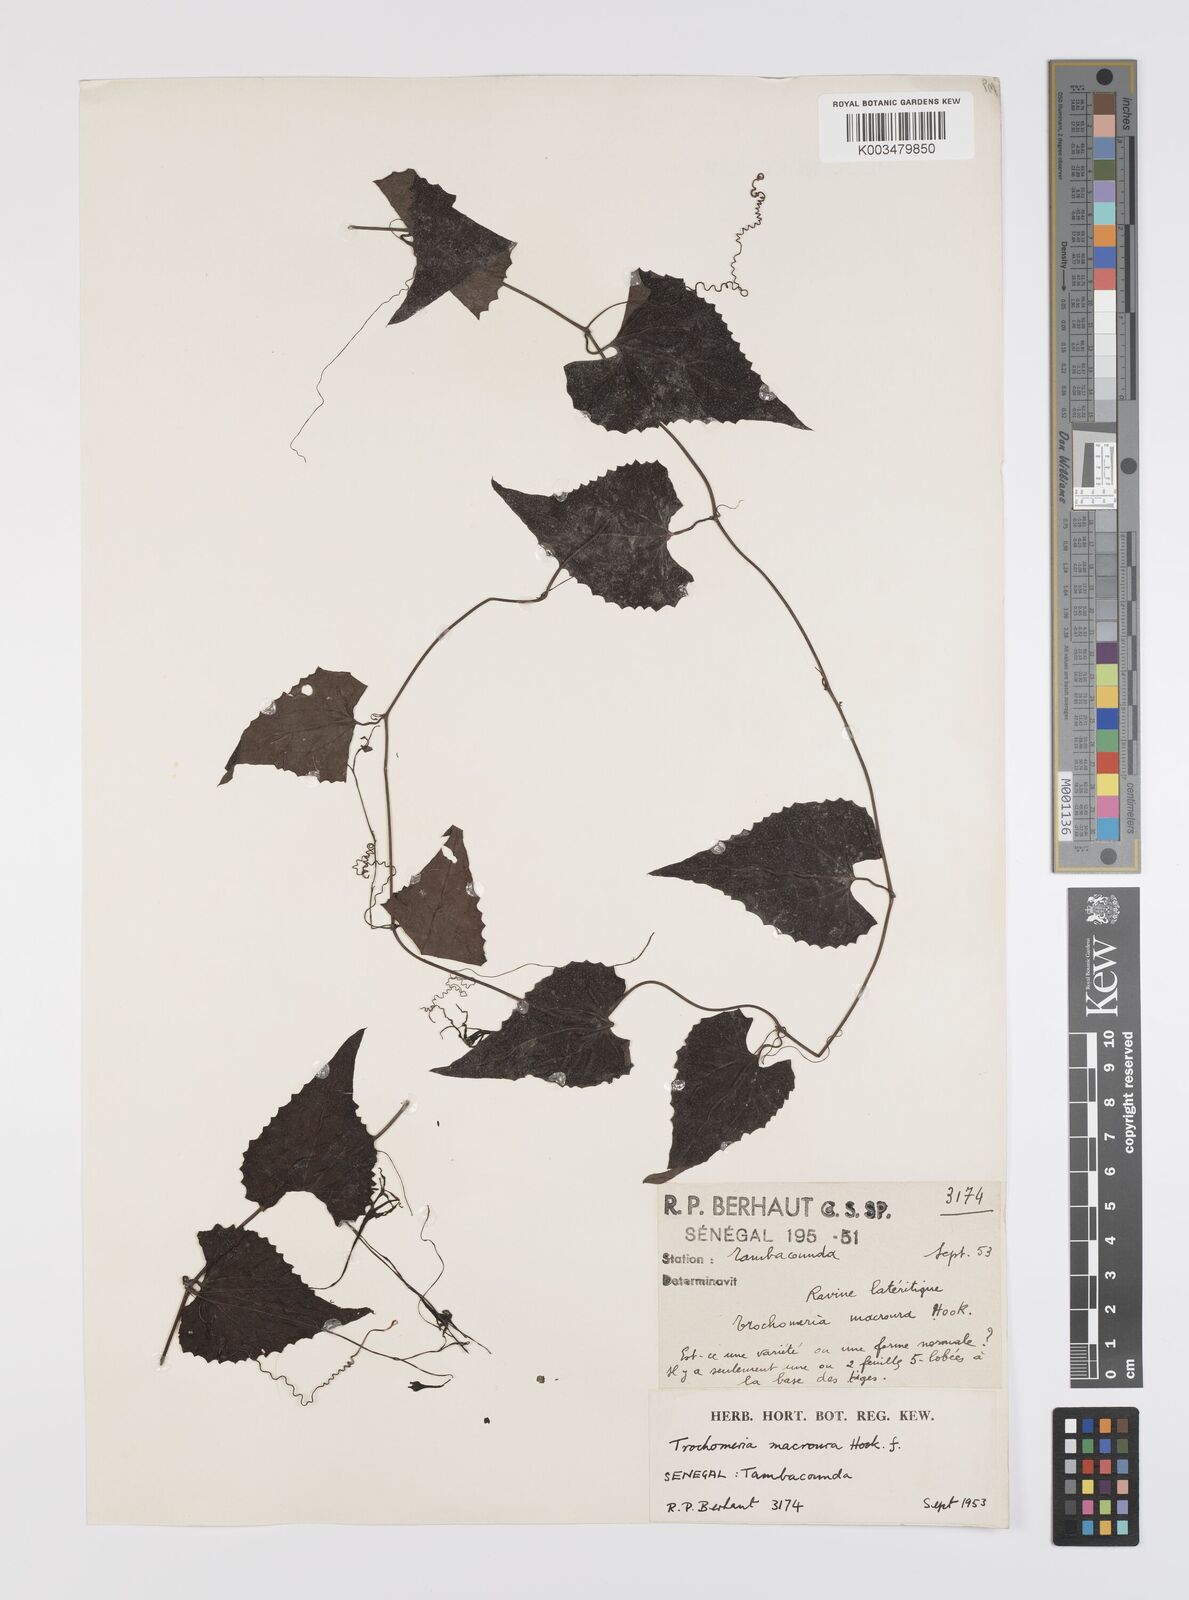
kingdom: Plantae
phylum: Tracheophyta
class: Magnoliopsida
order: Cucurbitales
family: Cucurbitaceae
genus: Trochomeria
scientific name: Trochomeria macrocarpa
